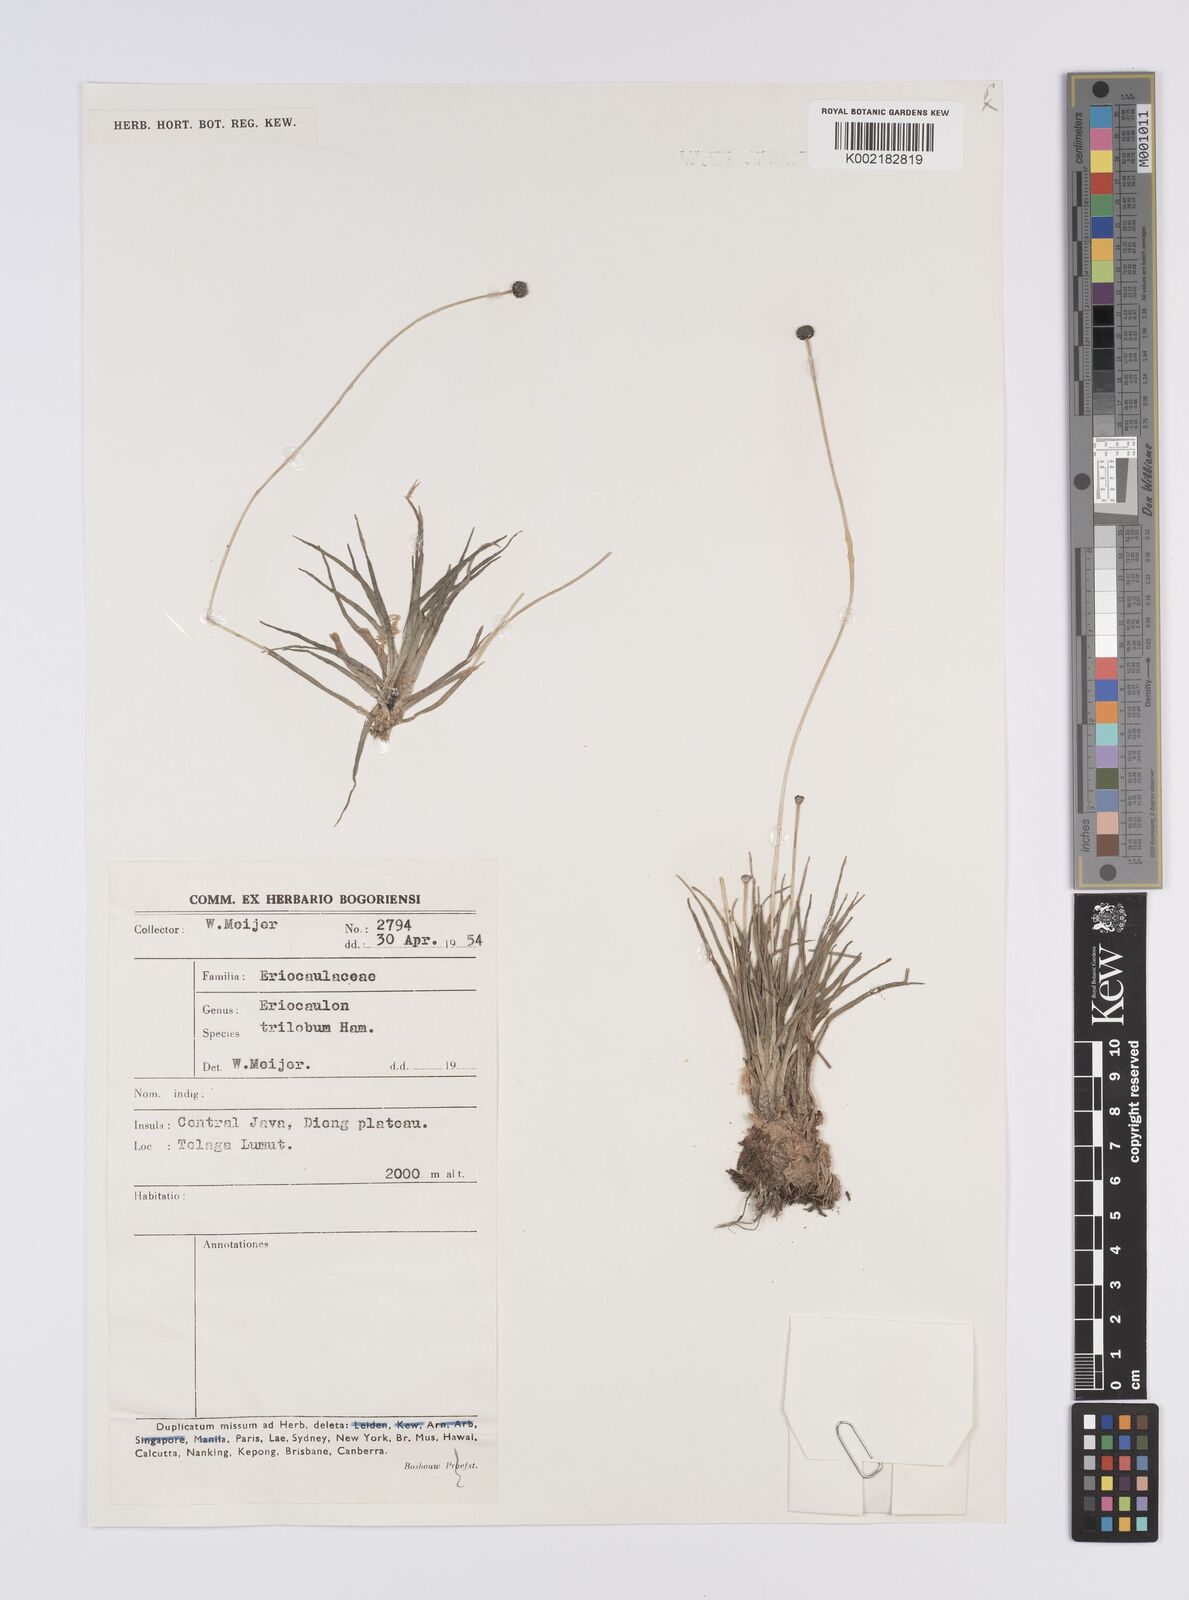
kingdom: Plantae
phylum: Tracheophyta
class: Liliopsida
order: Poales
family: Eriocaulaceae
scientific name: Eriocaulaceae
